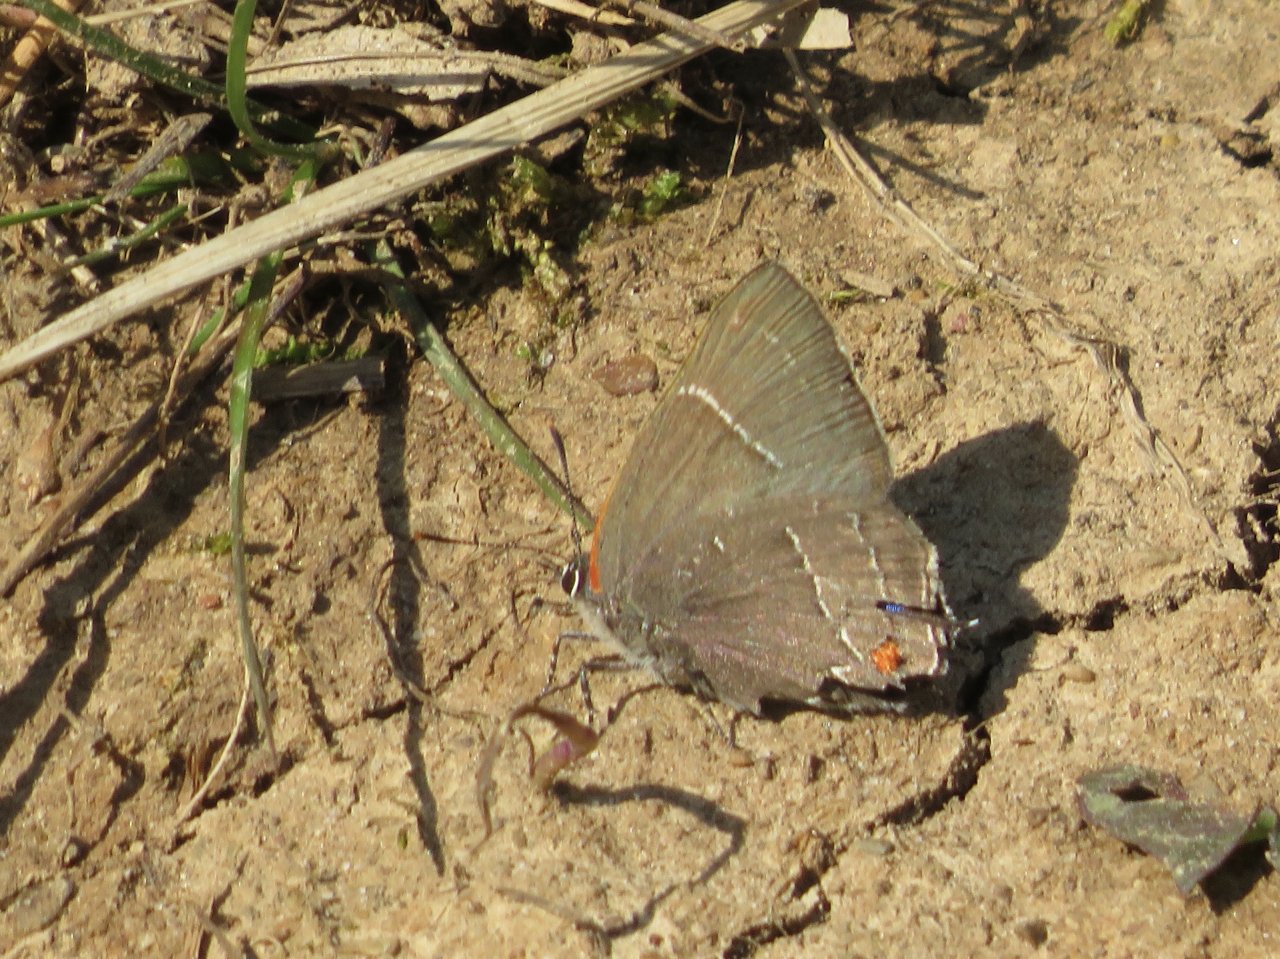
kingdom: Animalia
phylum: Arthropoda
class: Insecta
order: Lepidoptera
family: Lycaenidae
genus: Parrhasius
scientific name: Parrhasius m-album
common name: White-m Hairstreak
